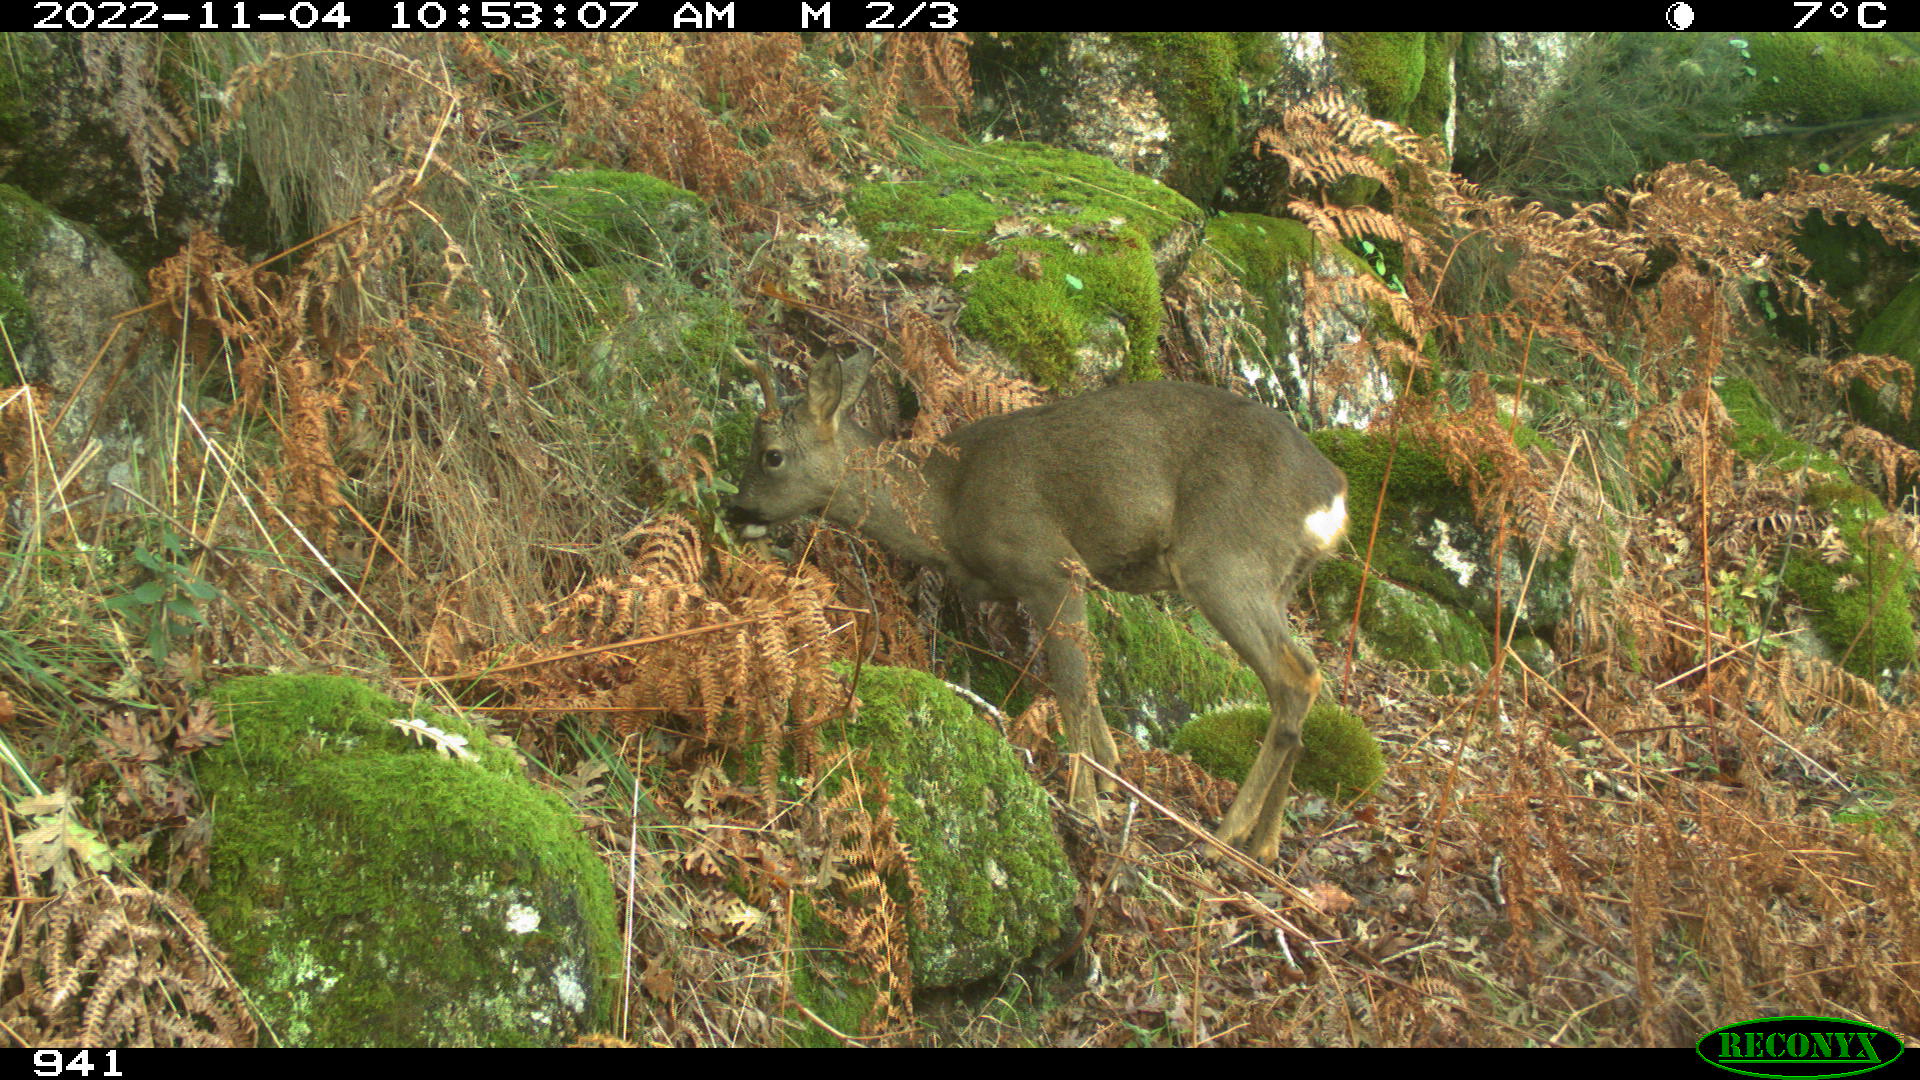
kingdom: Animalia
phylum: Chordata
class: Mammalia
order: Artiodactyla
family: Cervidae
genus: Capreolus
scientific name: Capreolus capreolus
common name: Western roe deer
